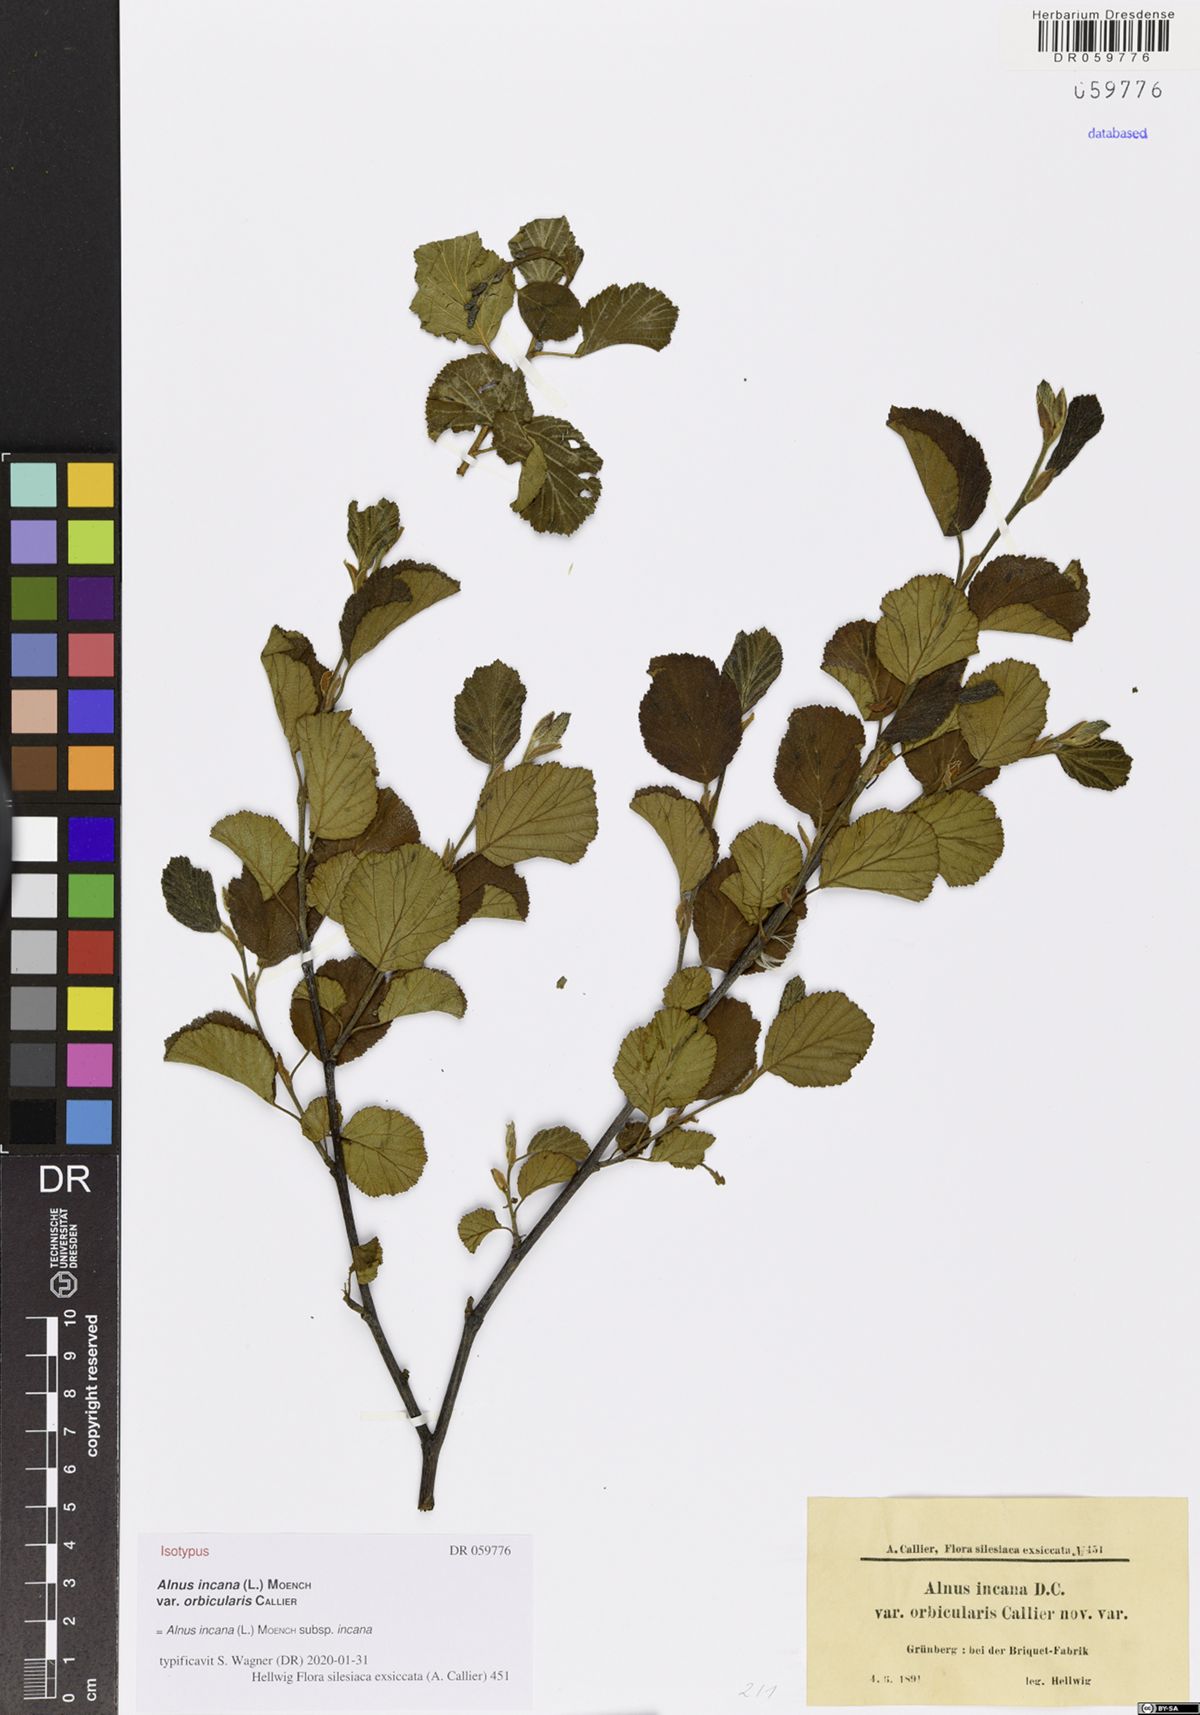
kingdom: Plantae
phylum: Tracheophyta
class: Magnoliopsida
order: Fagales
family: Betulaceae
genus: Alnus
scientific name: Alnus incana
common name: Grey alder
